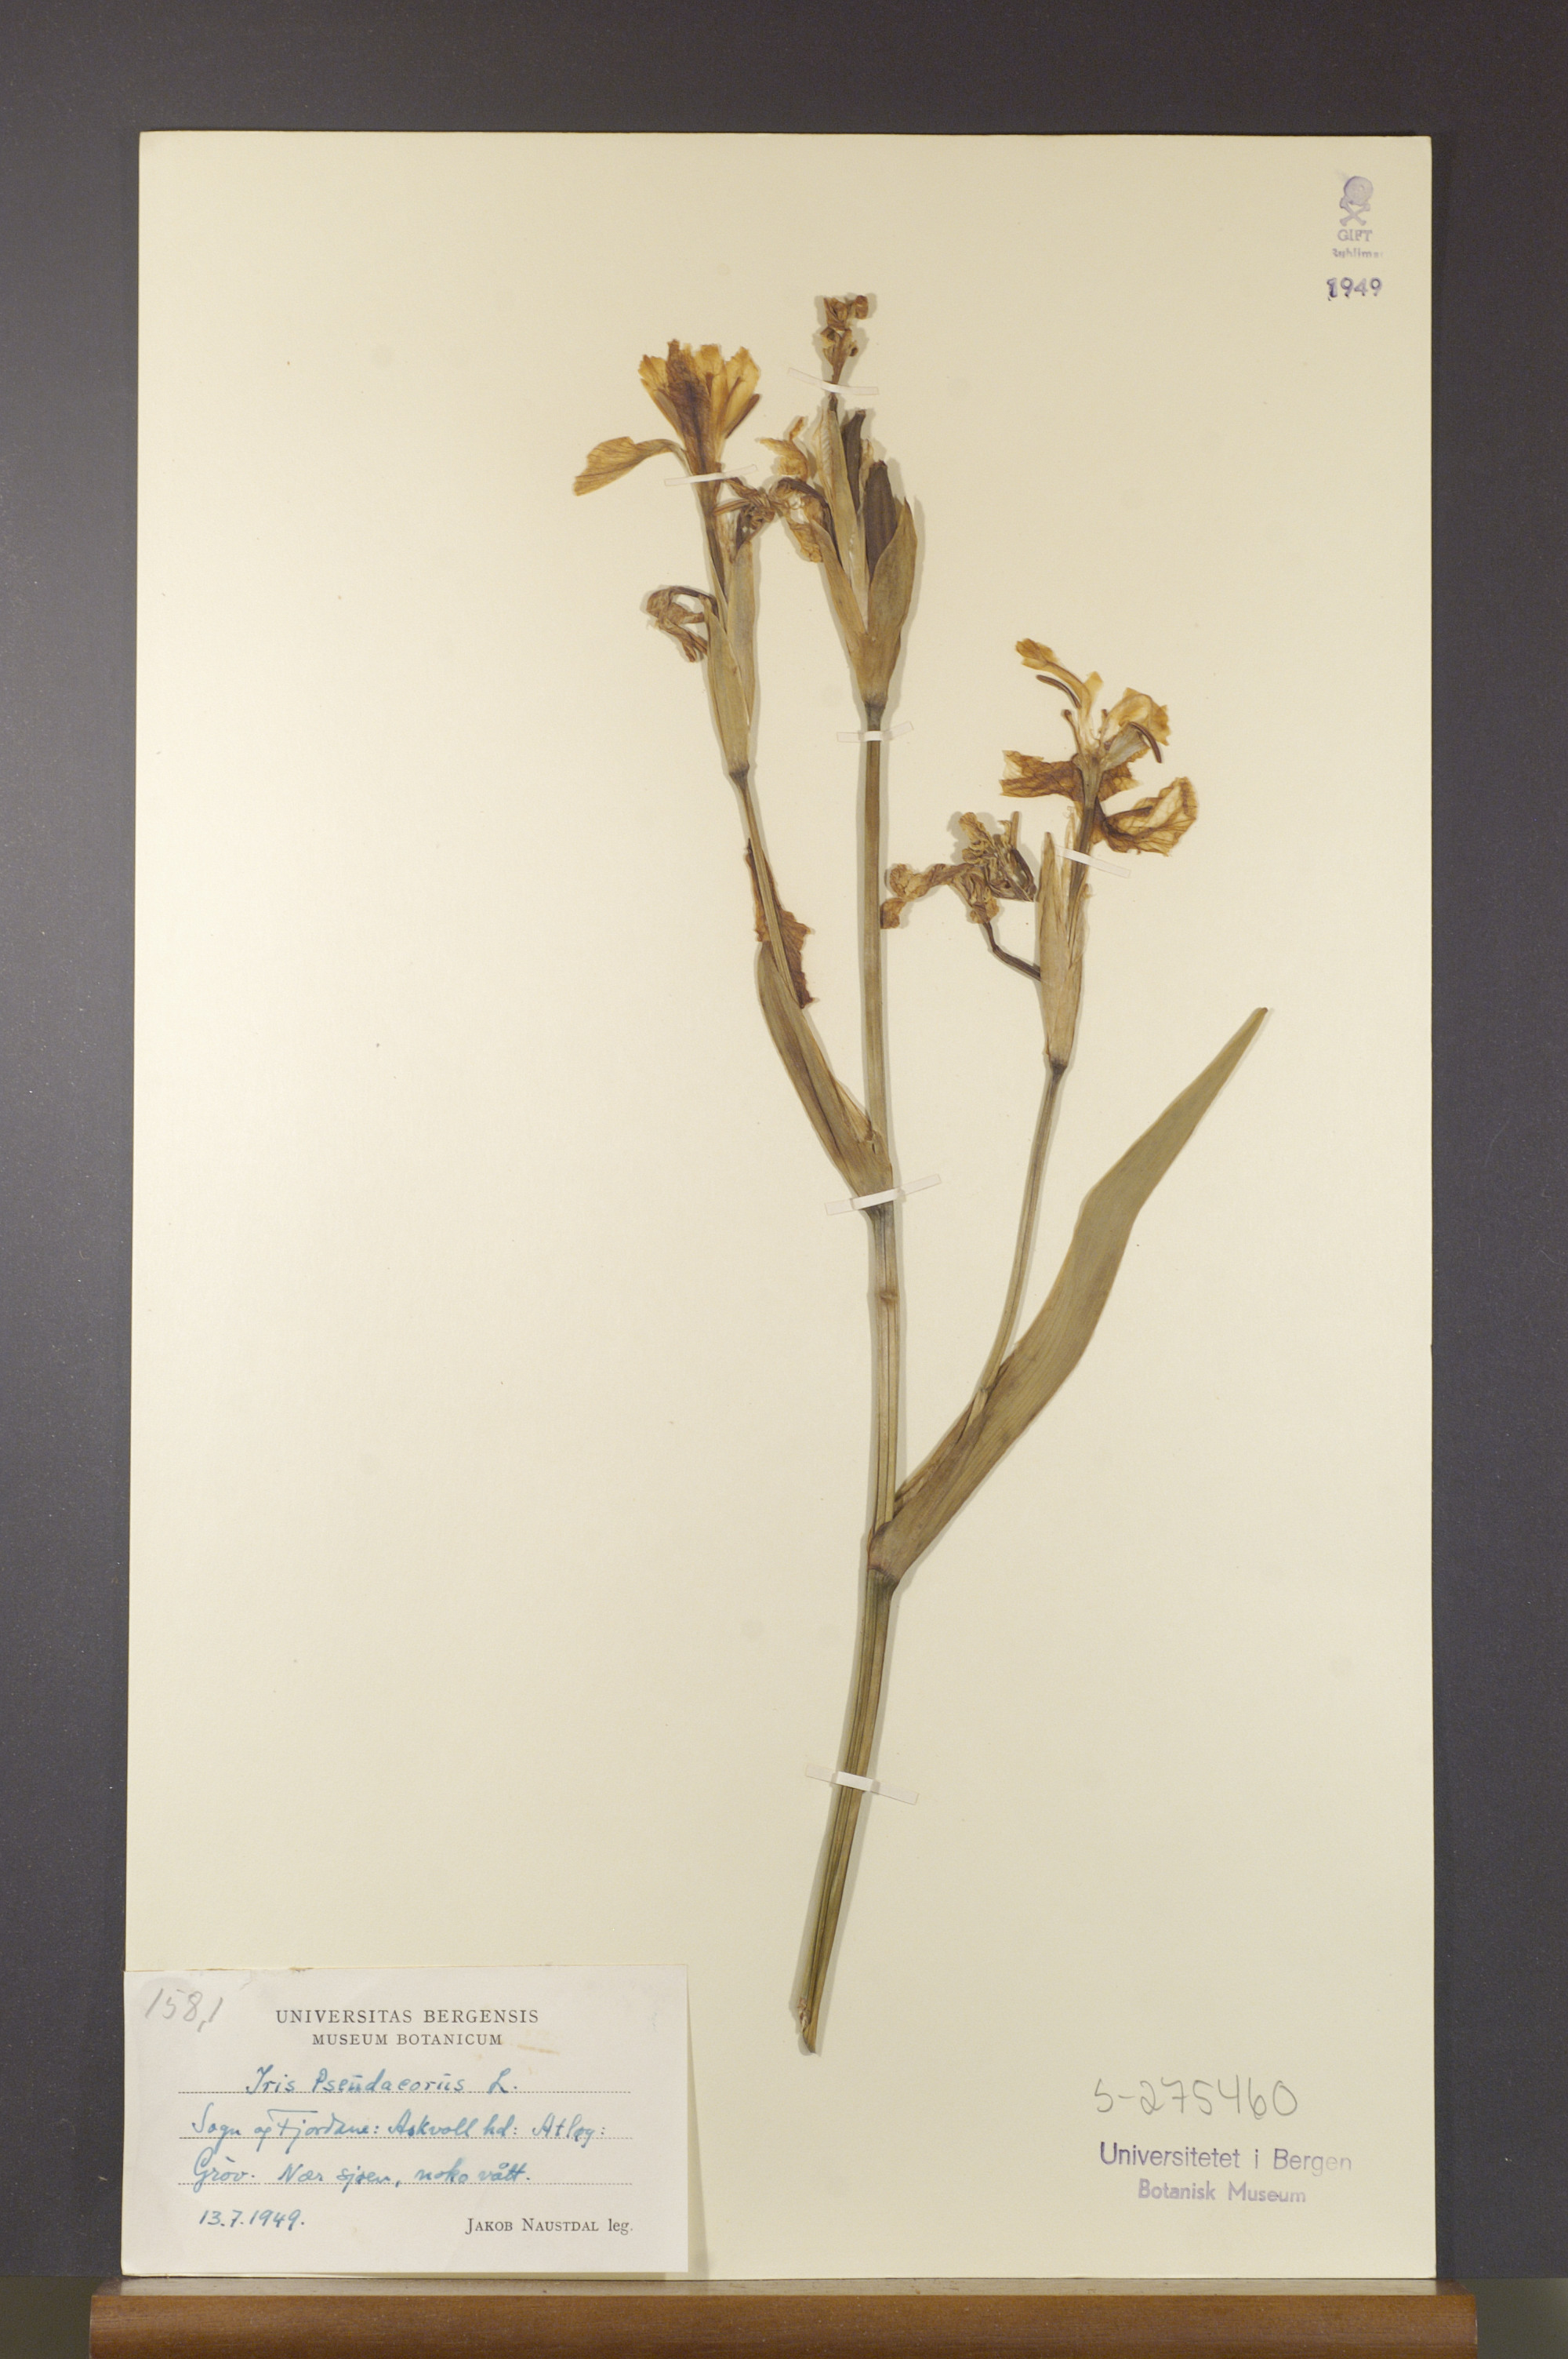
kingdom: Plantae
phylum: Tracheophyta
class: Liliopsida
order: Asparagales
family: Iridaceae
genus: Iris
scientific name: Iris pseudacorus
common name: Yellow flag
